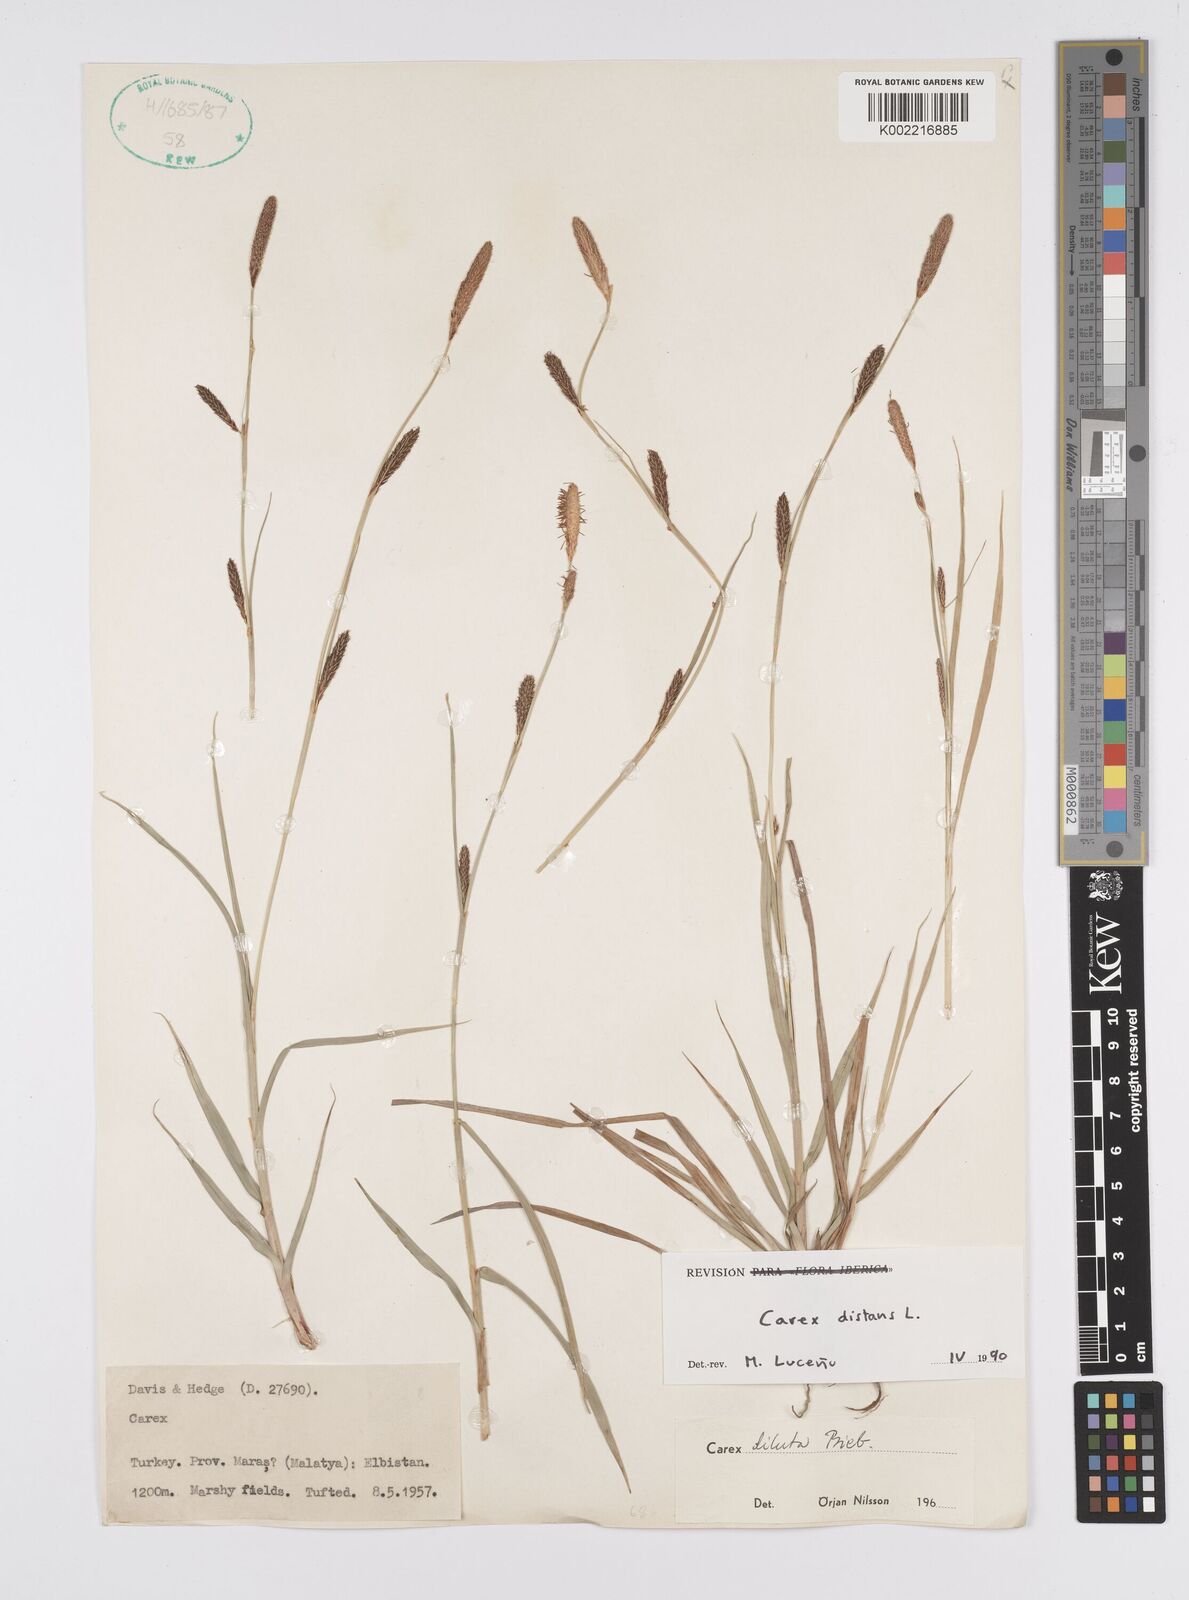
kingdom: Plantae
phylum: Tracheophyta
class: Liliopsida
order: Poales
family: Cyperaceae
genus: Carex
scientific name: Carex distans
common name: Distant sedge
